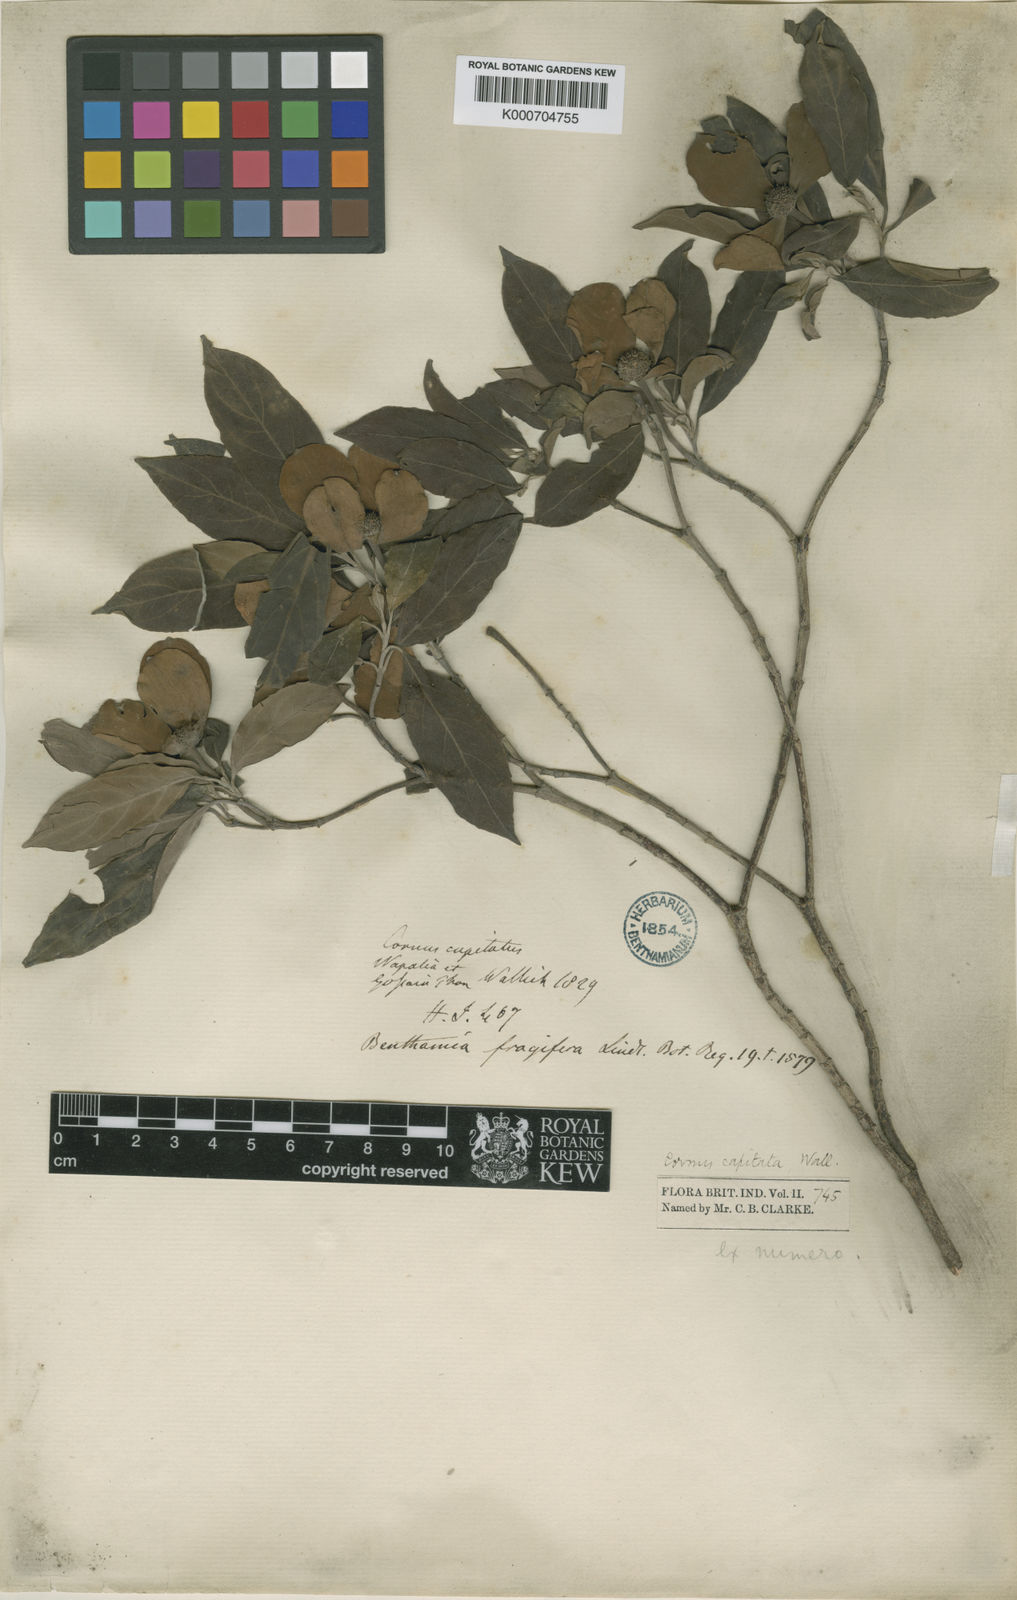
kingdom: Plantae
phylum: Tracheophyta
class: Magnoliopsida
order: Cornales
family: Cornaceae
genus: Cornus
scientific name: Cornus capitata
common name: Bentham's cornel
